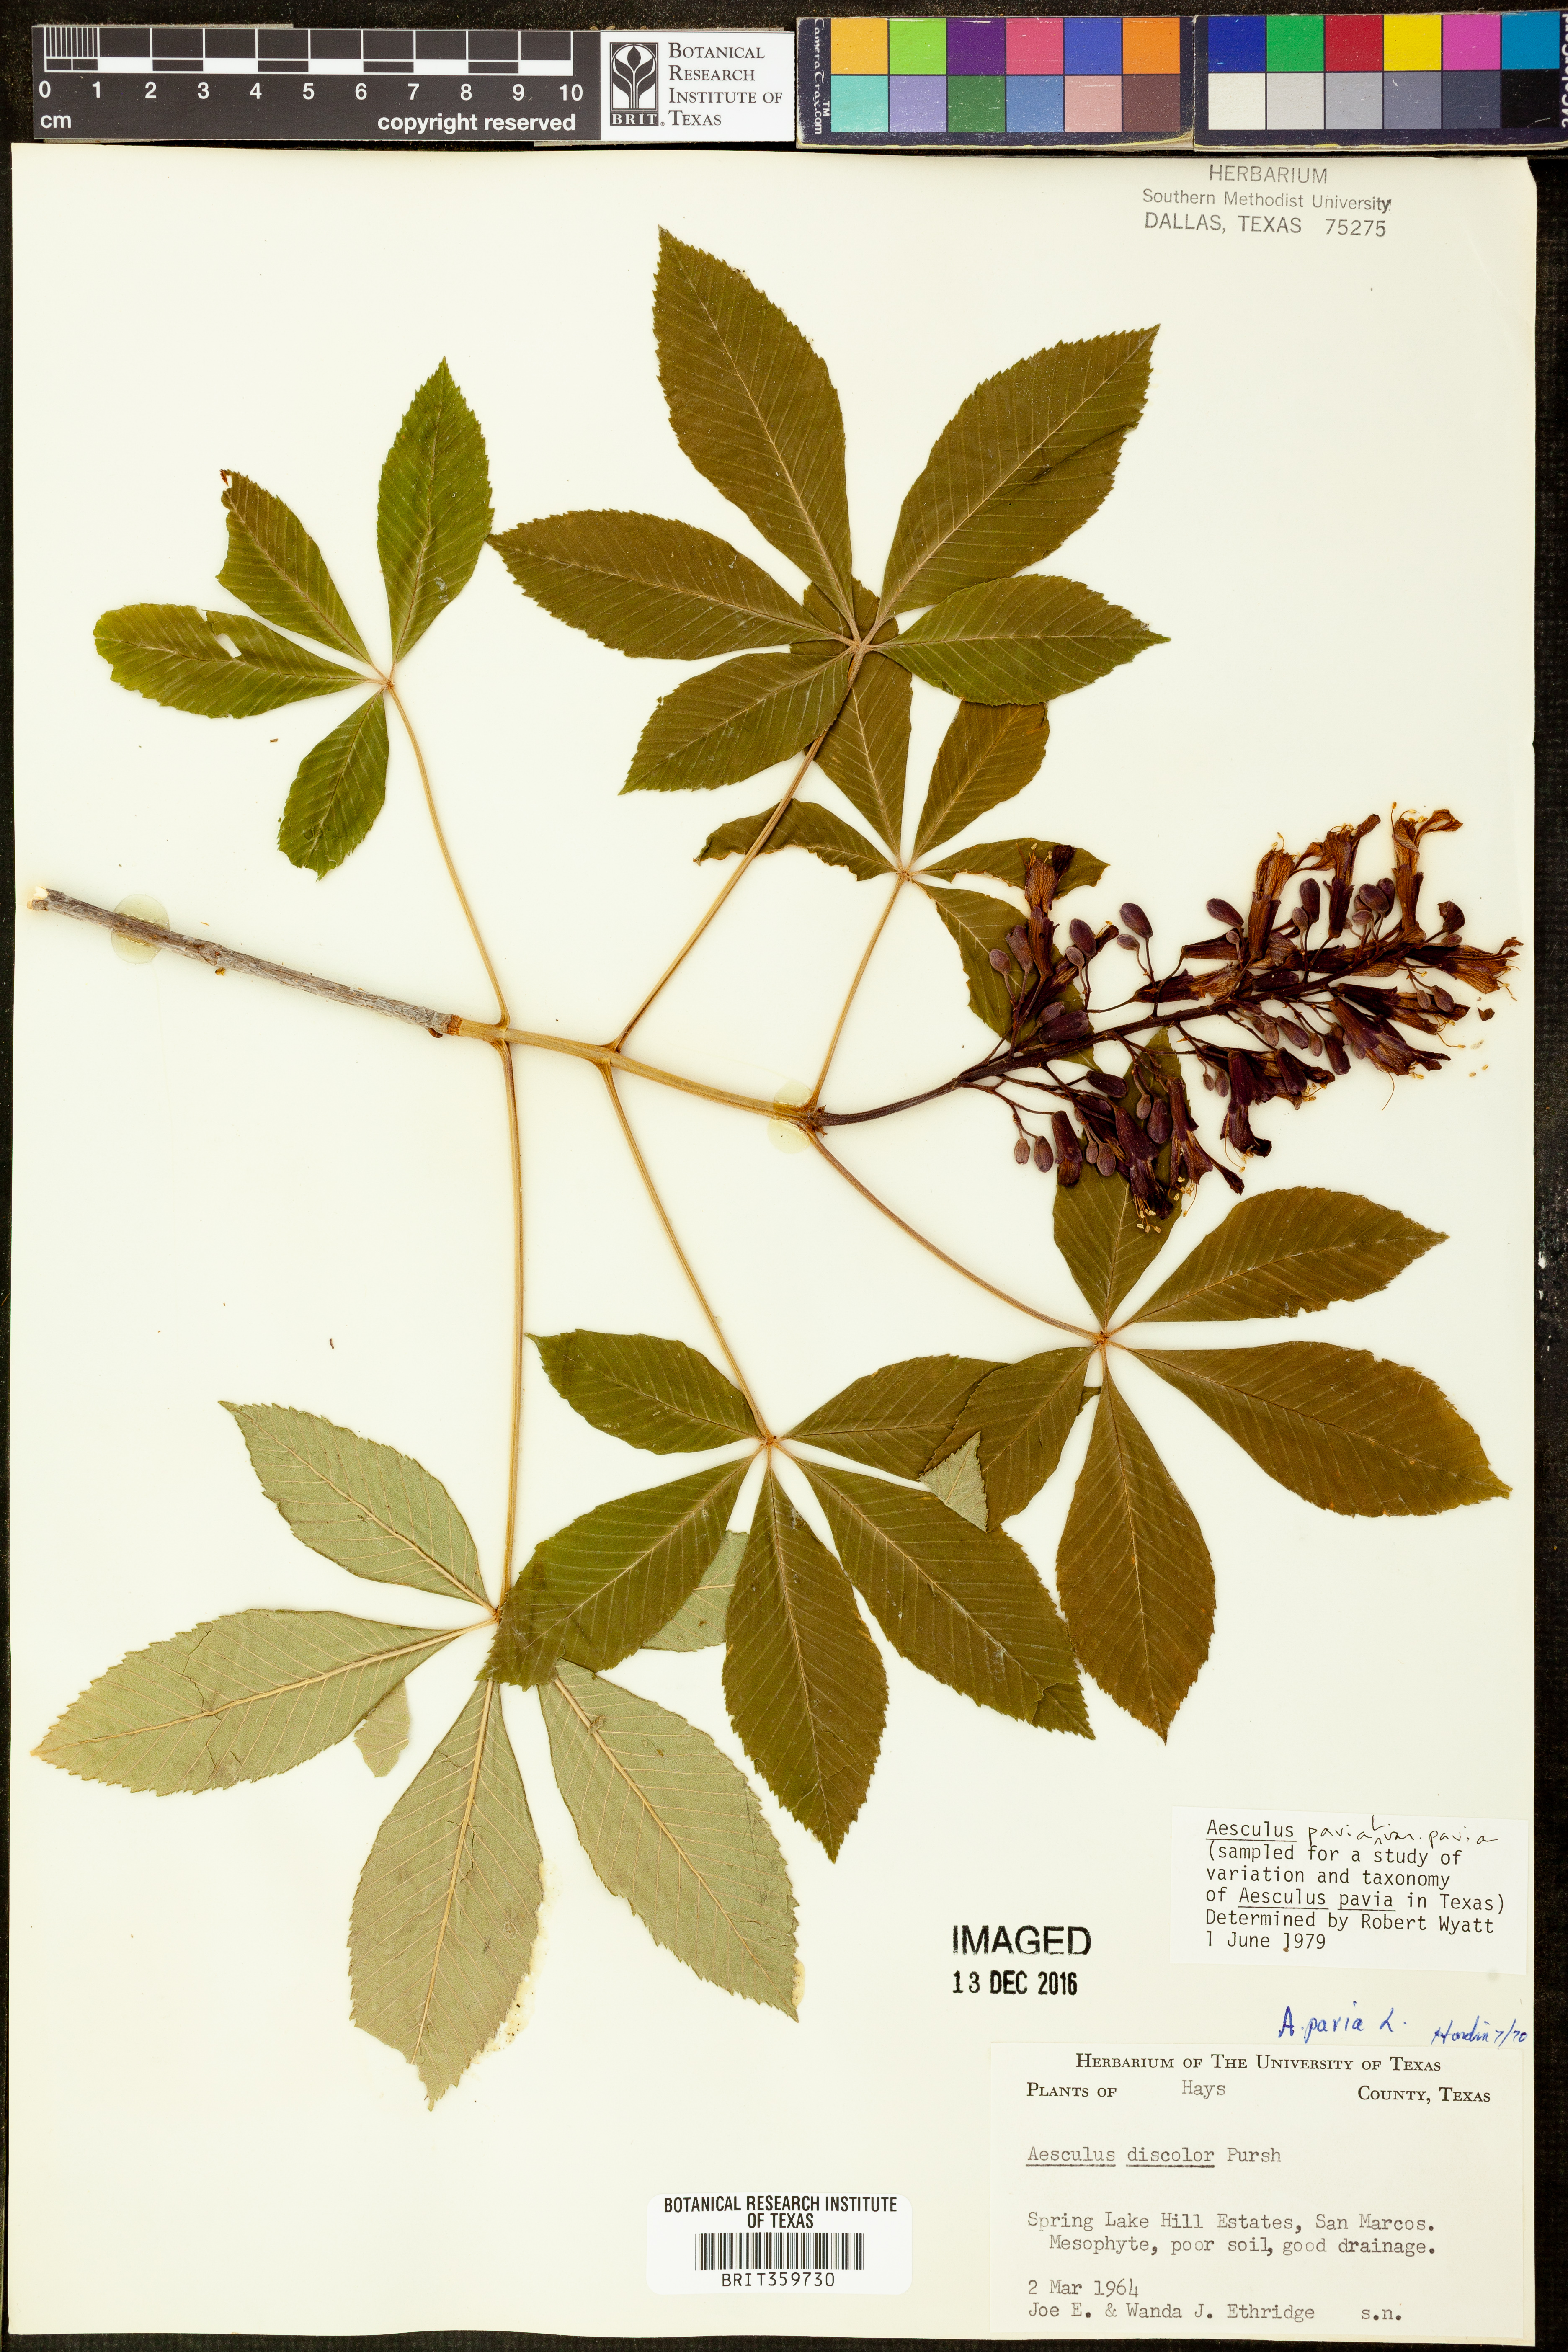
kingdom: Plantae
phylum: Tracheophyta
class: Magnoliopsida
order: Sapindales
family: Sapindaceae
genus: Aesculus
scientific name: Aesculus pavia
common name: Red buckeye
